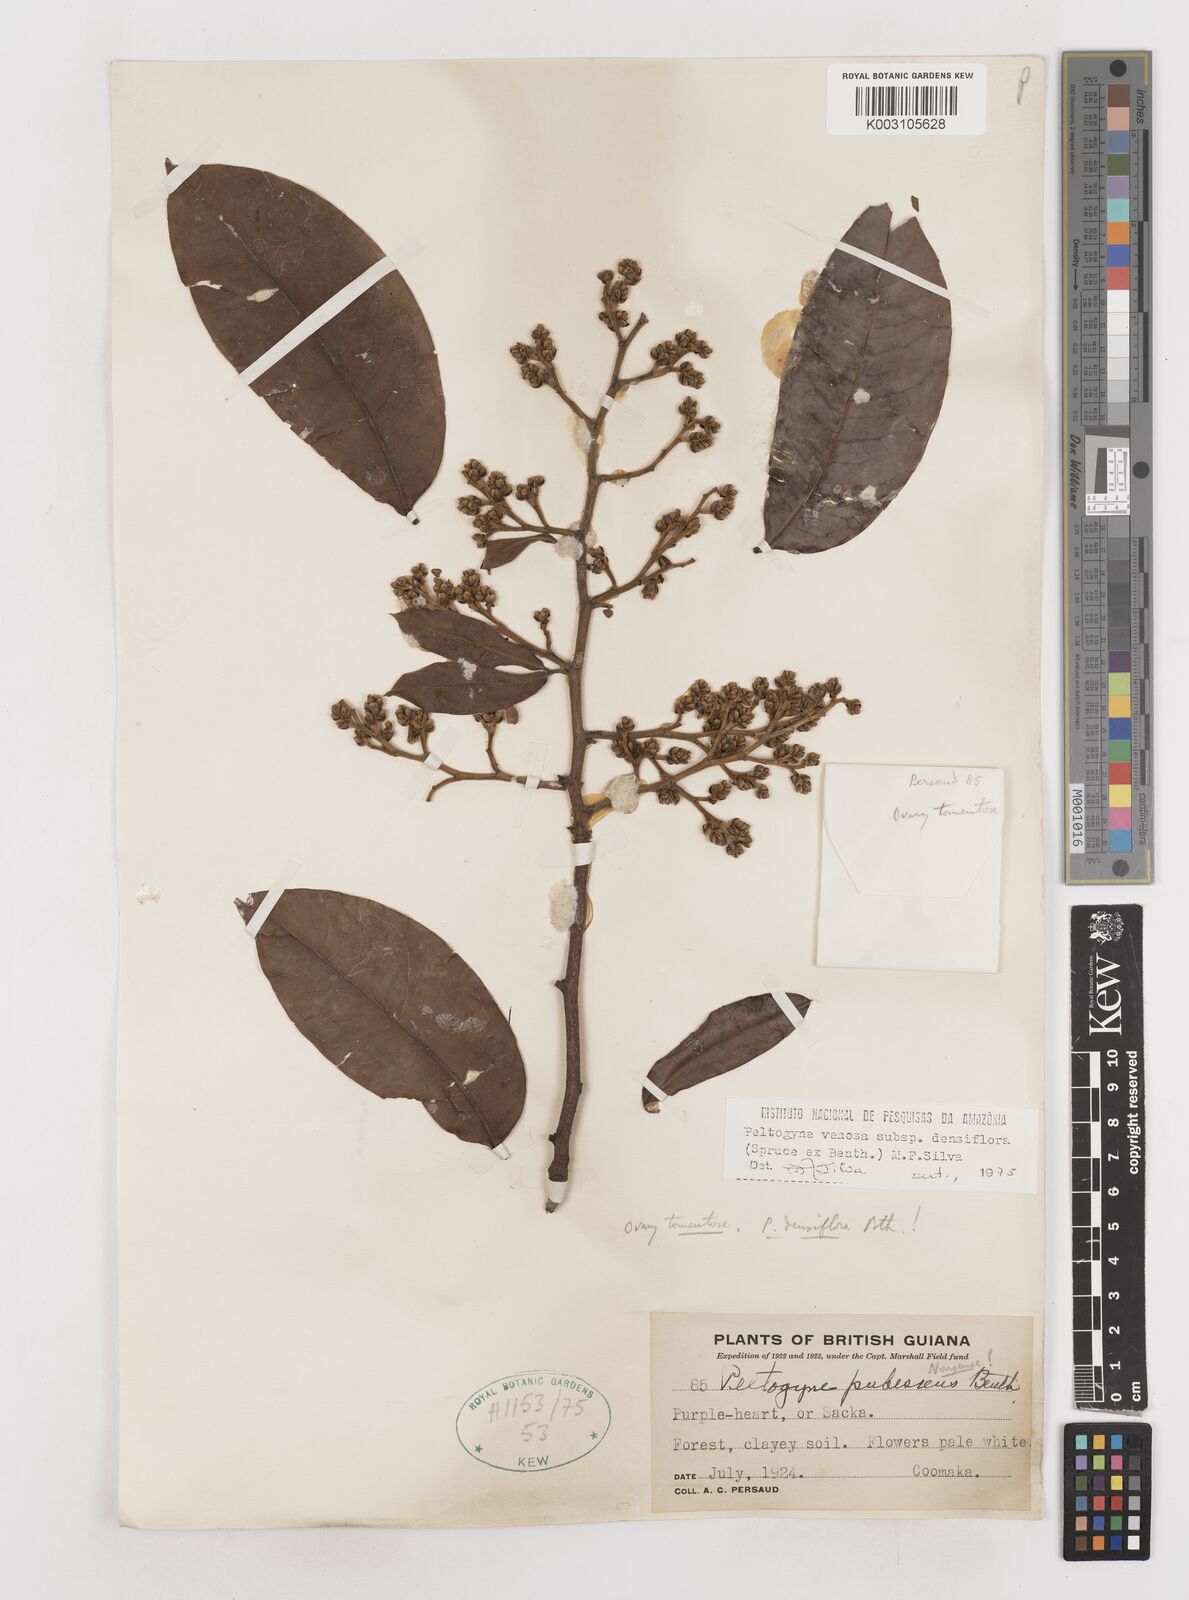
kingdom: Plantae
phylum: Tracheophyta
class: Magnoliopsida
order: Fabales
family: Fabaceae
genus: Peltogyne
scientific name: Peltogyne venosa
